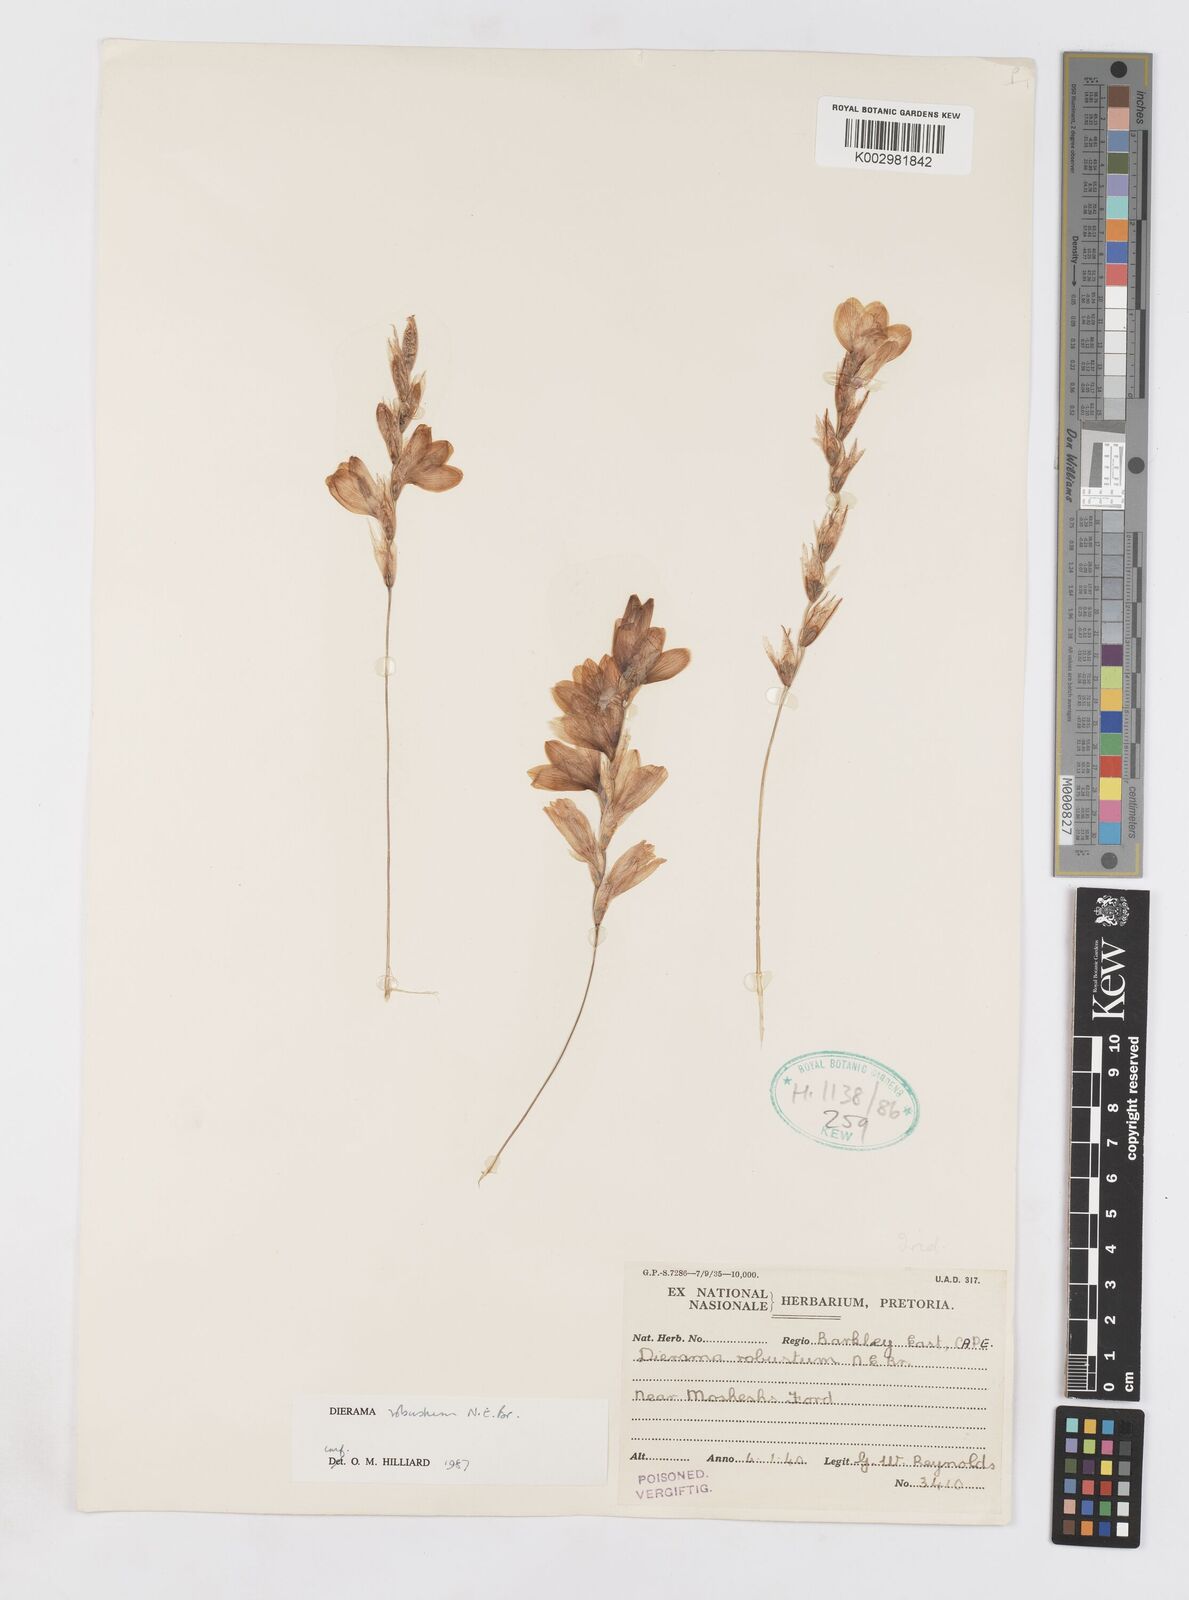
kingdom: Plantae
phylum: Tracheophyta
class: Liliopsida
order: Asparagales
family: Iridaceae
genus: Dierama
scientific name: Dierama robustum
